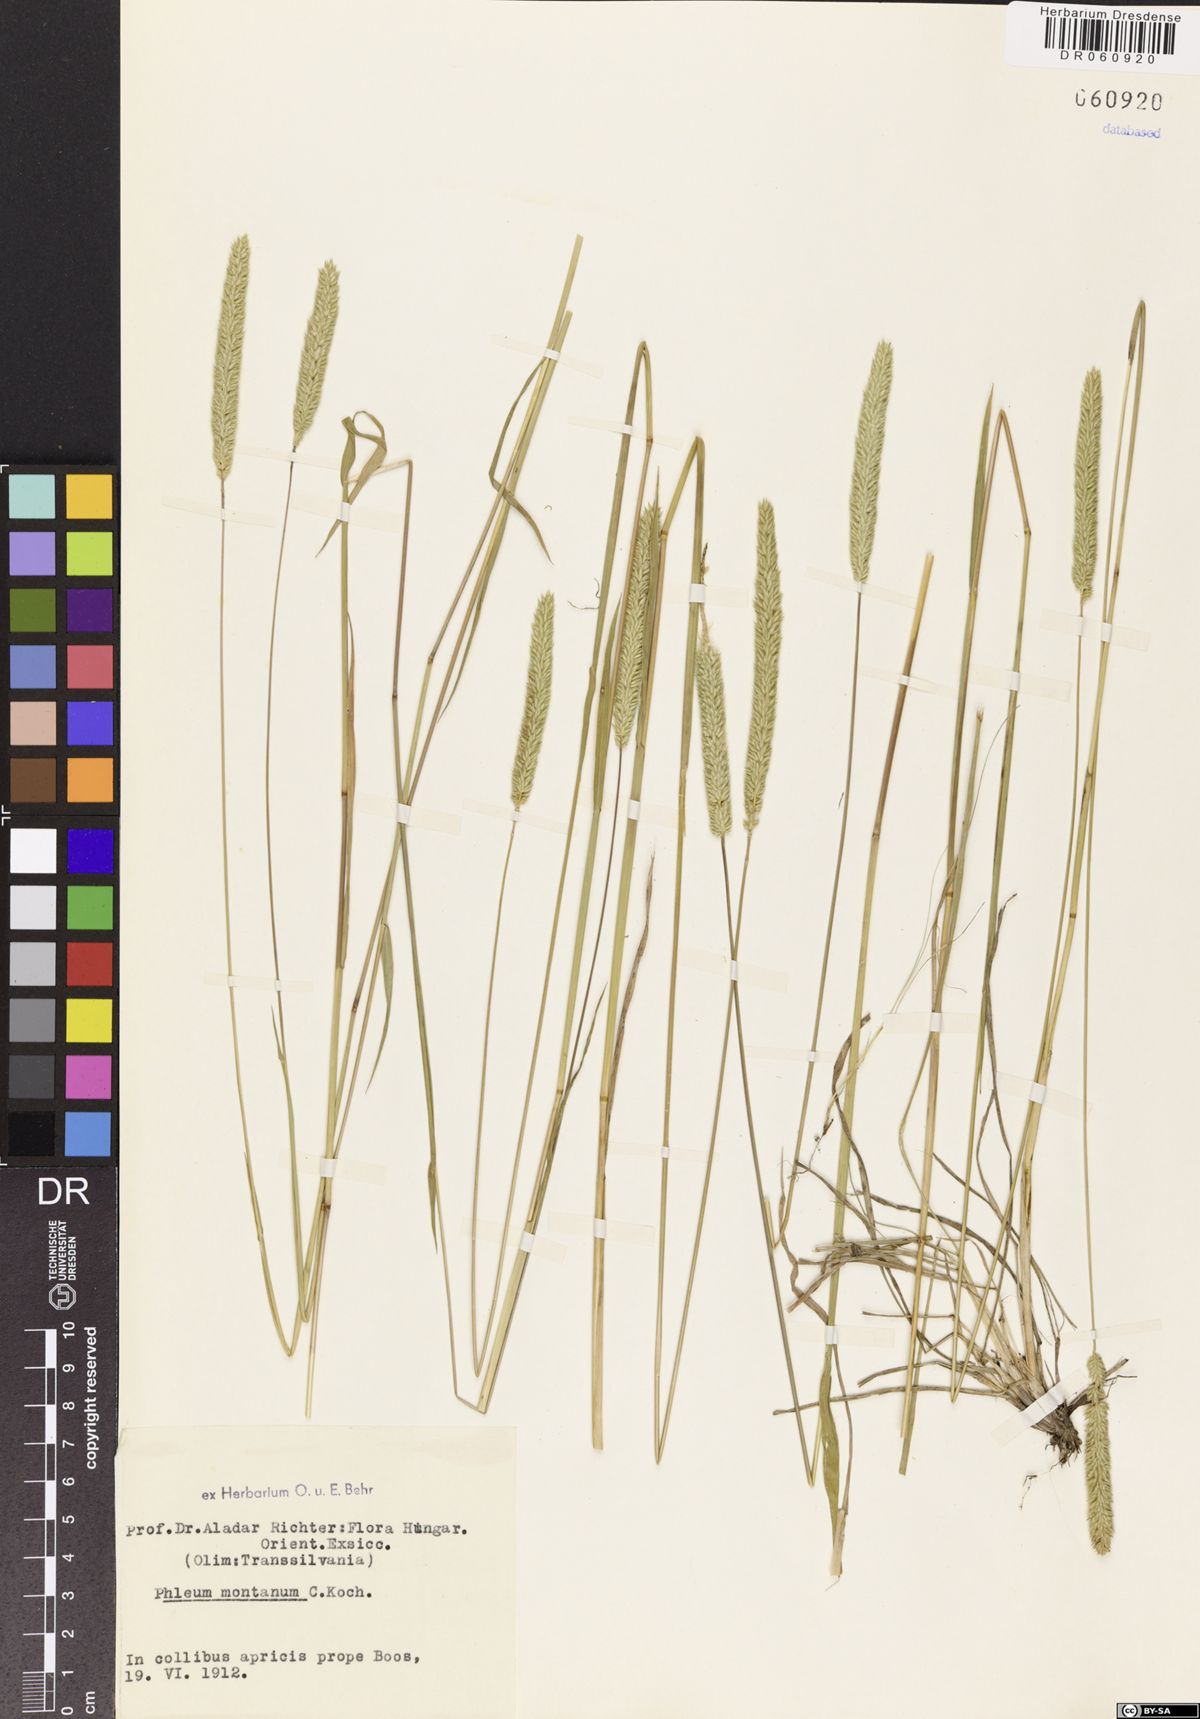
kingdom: Plantae
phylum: Tracheophyta
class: Liliopsida
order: Poales
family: Poaceae
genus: Phleum
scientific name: Phleum montanum
